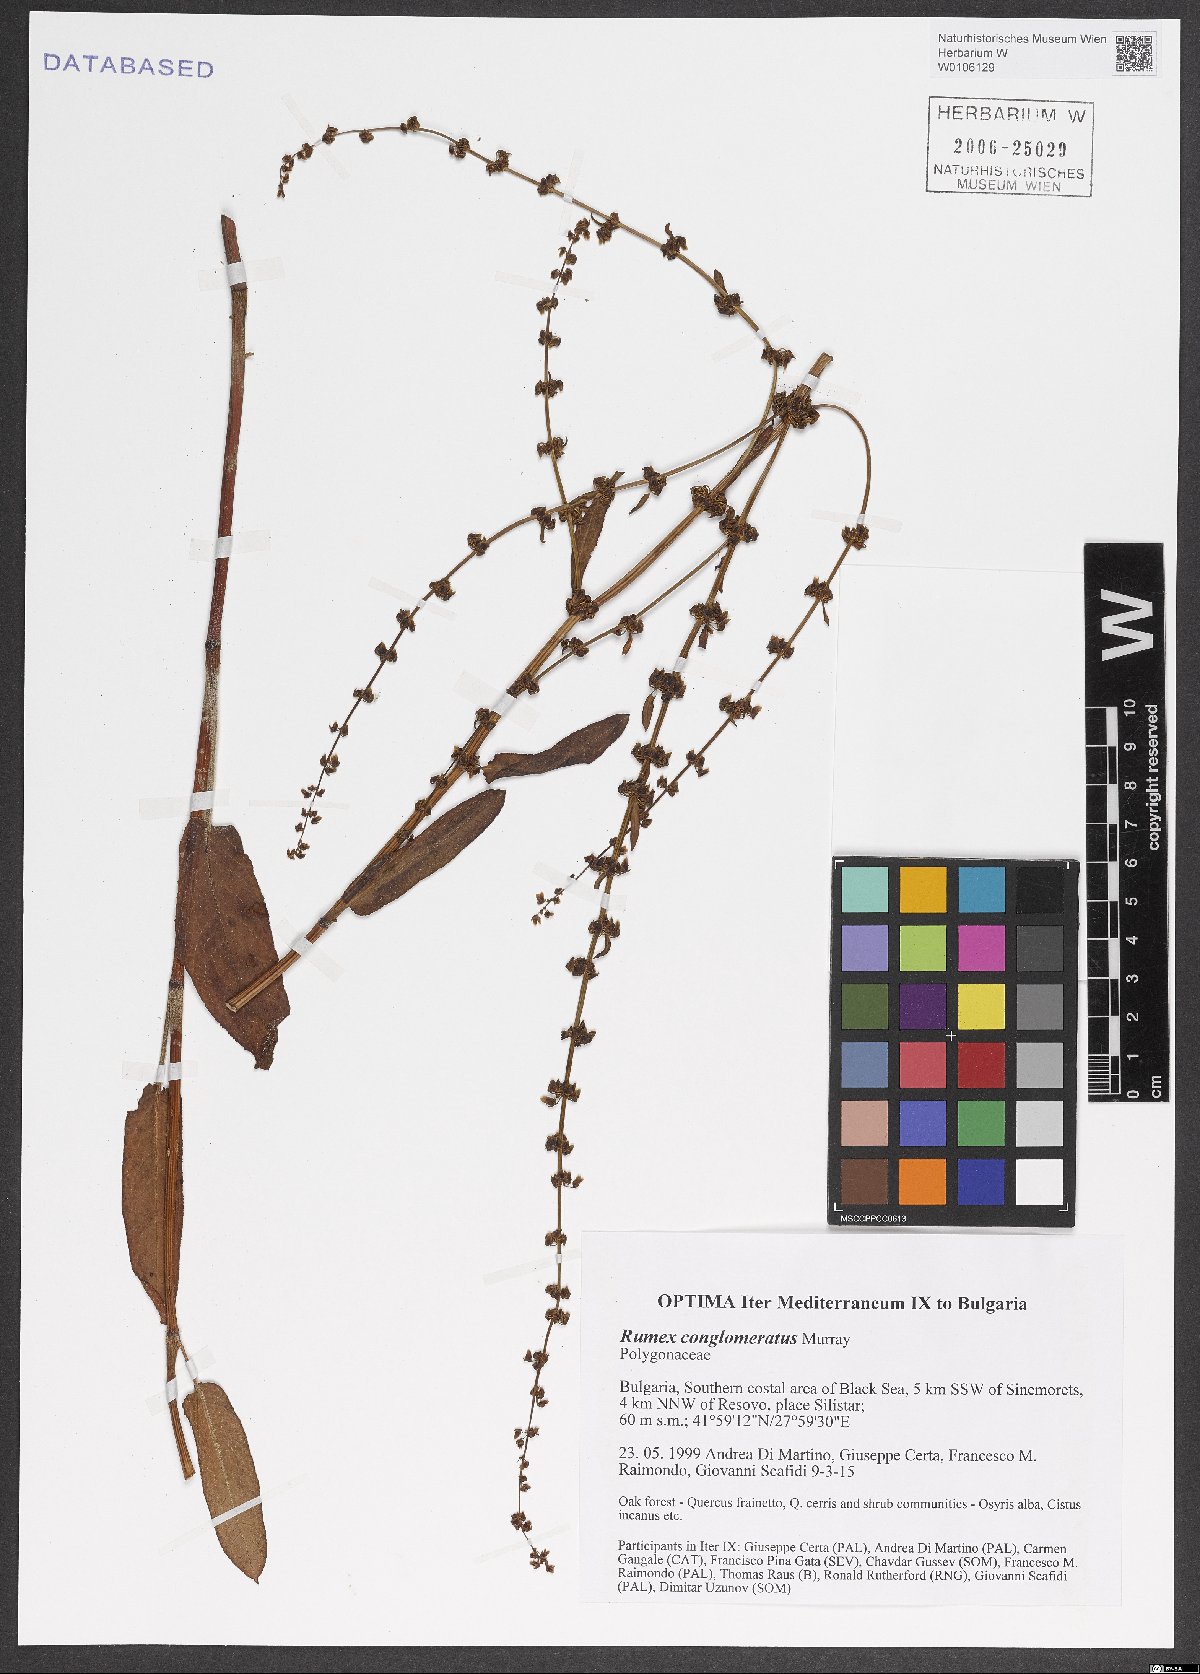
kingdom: Plantae
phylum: Tracheophyta
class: Magnoliopsida
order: Caryophyllales
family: Polygonaceae
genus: Rumex
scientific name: Rumex conglomeratus
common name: Clustered dock
